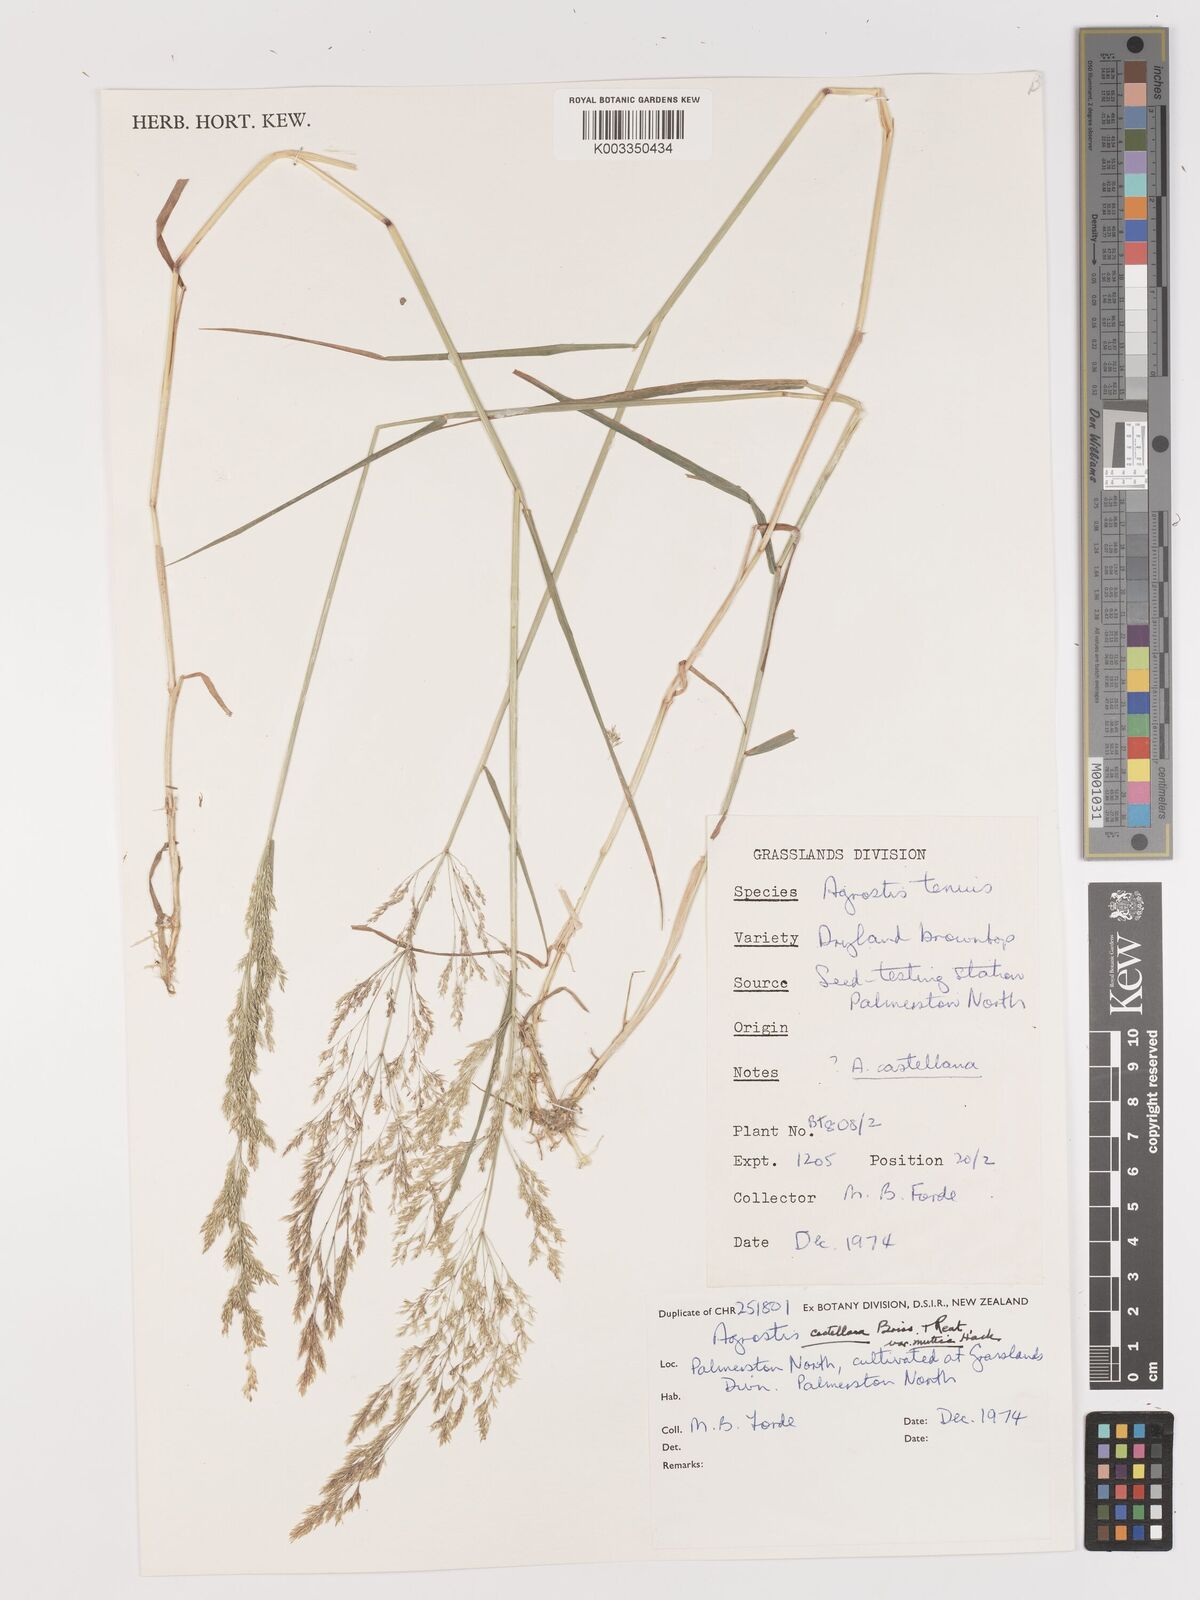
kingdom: Plantae
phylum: Tracheophyta
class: Liliopsida
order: Poales
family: Poaceae
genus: Agrostis
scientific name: Agrostis castellana
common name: Highland bent
